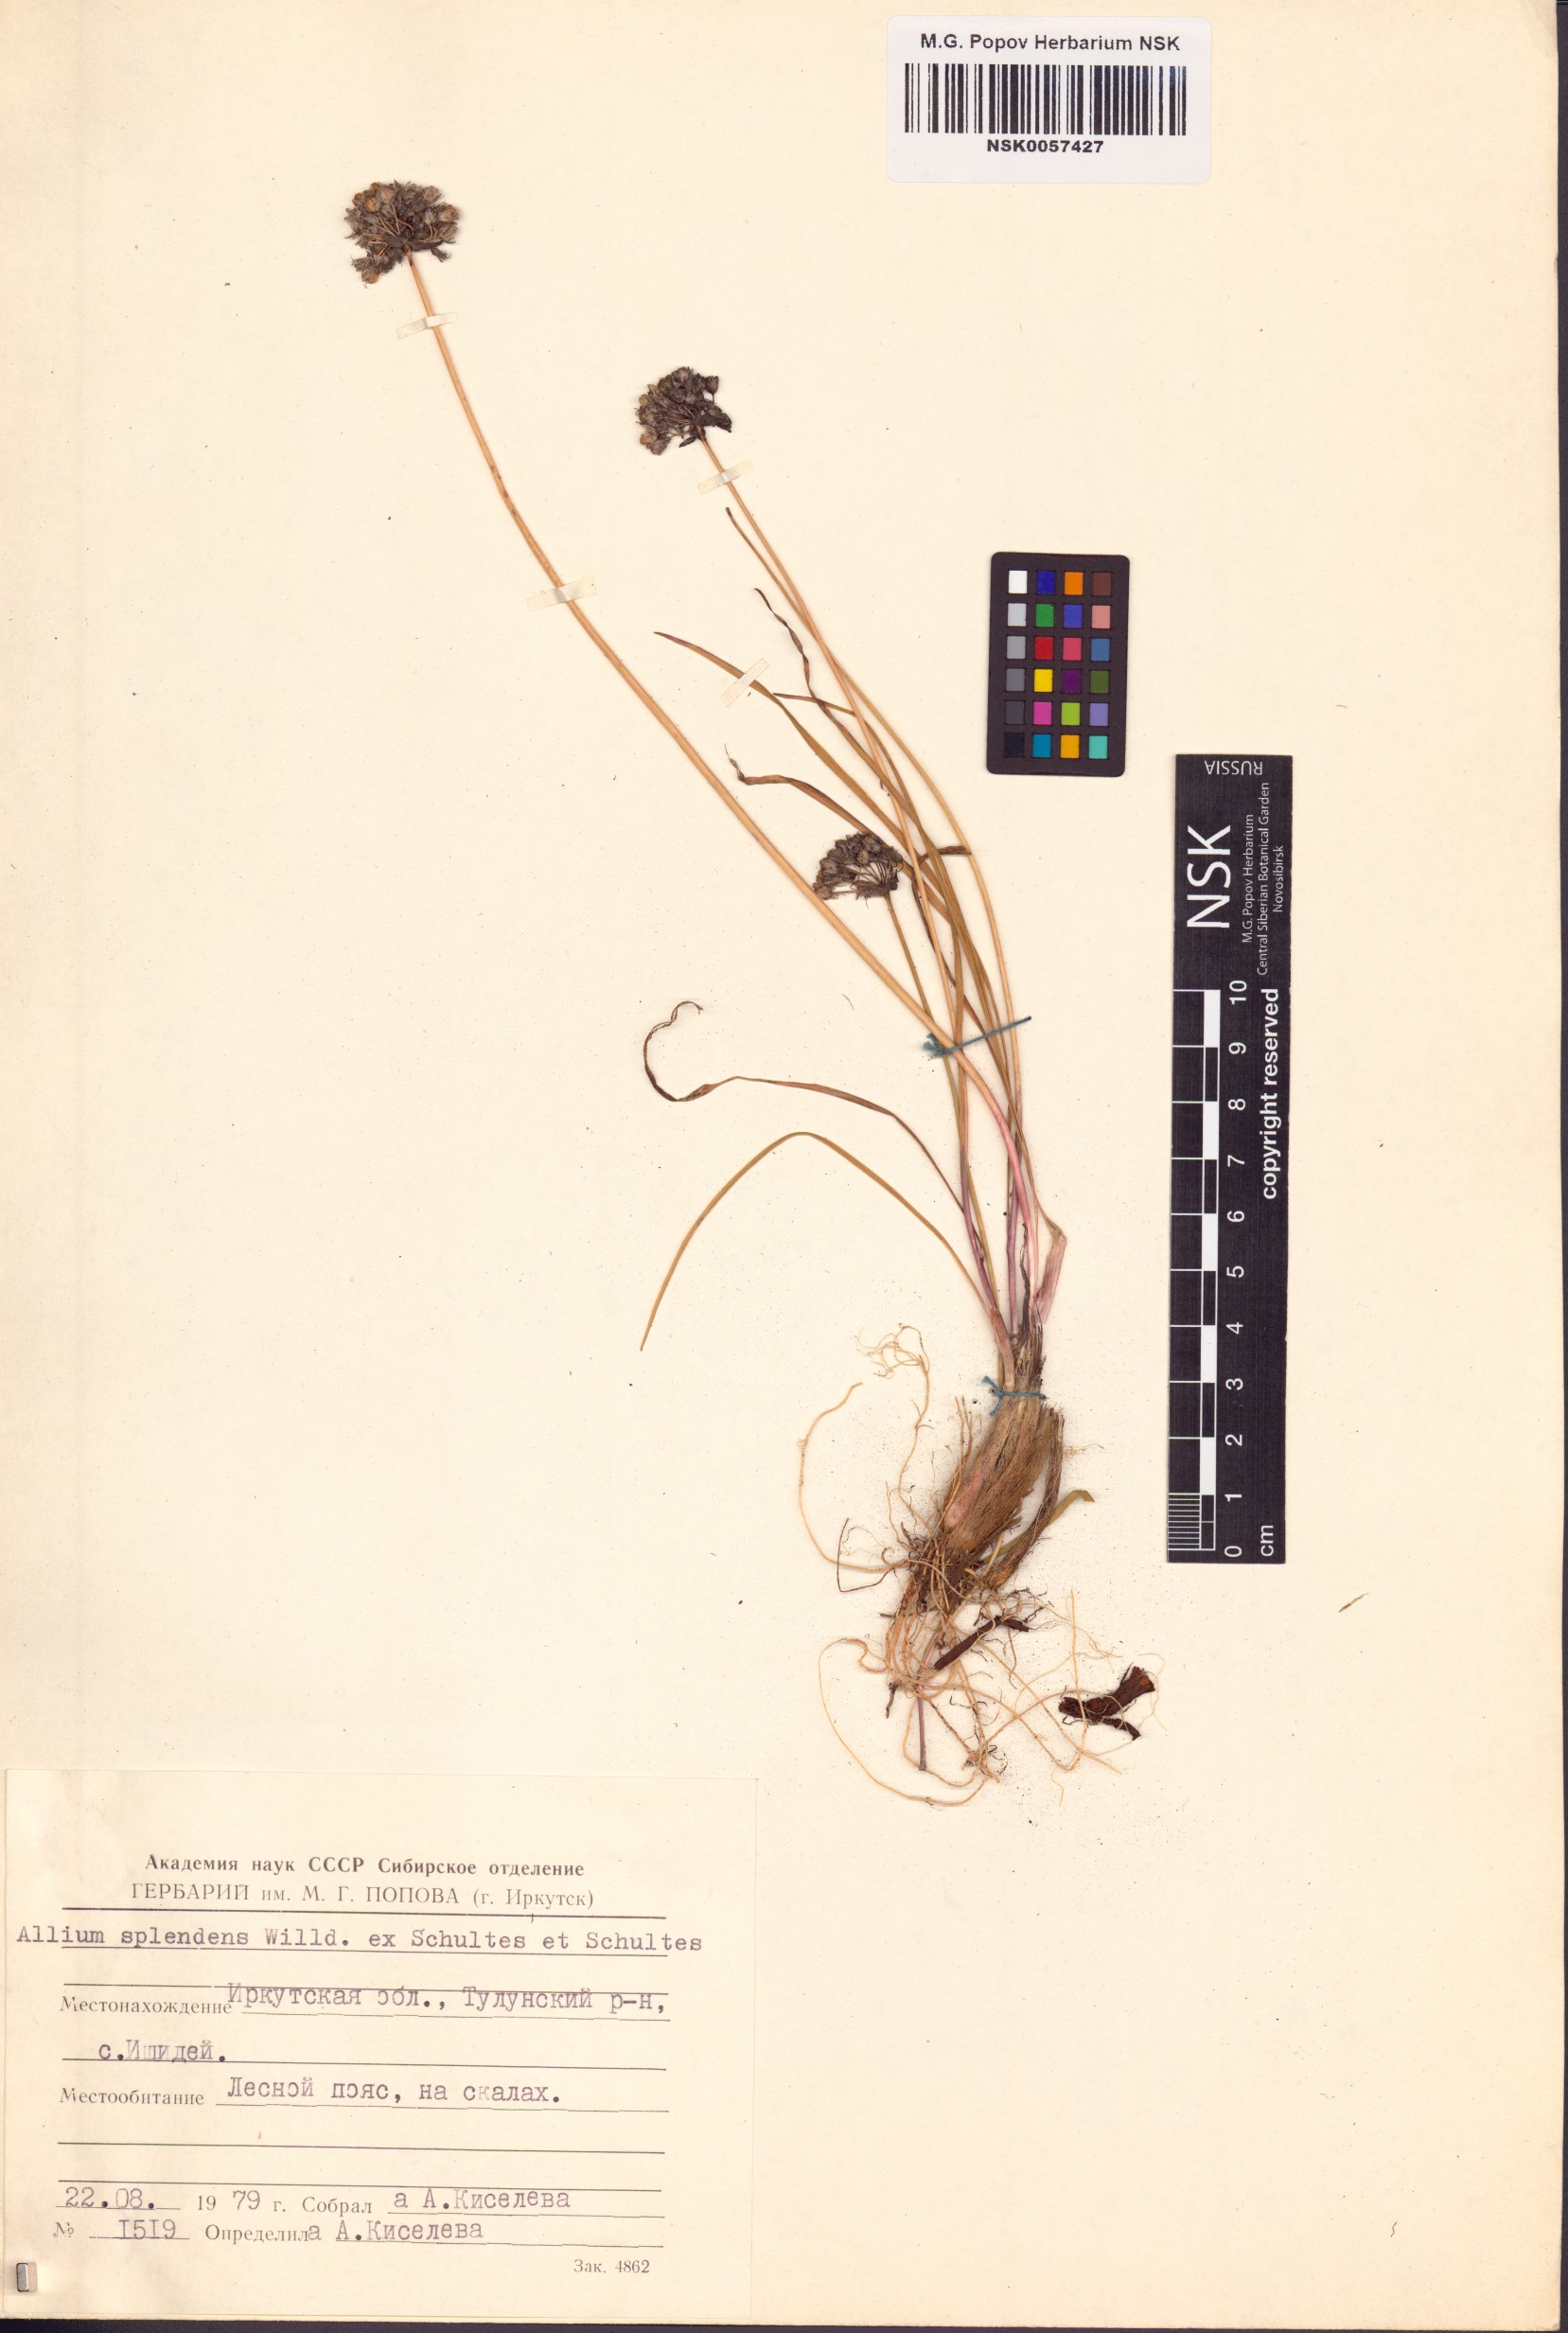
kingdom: Plantae
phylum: Tracheophyta
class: Liliopsida
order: Asparagales
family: Amaryllidaceae
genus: Allium
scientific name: Allium splendens
